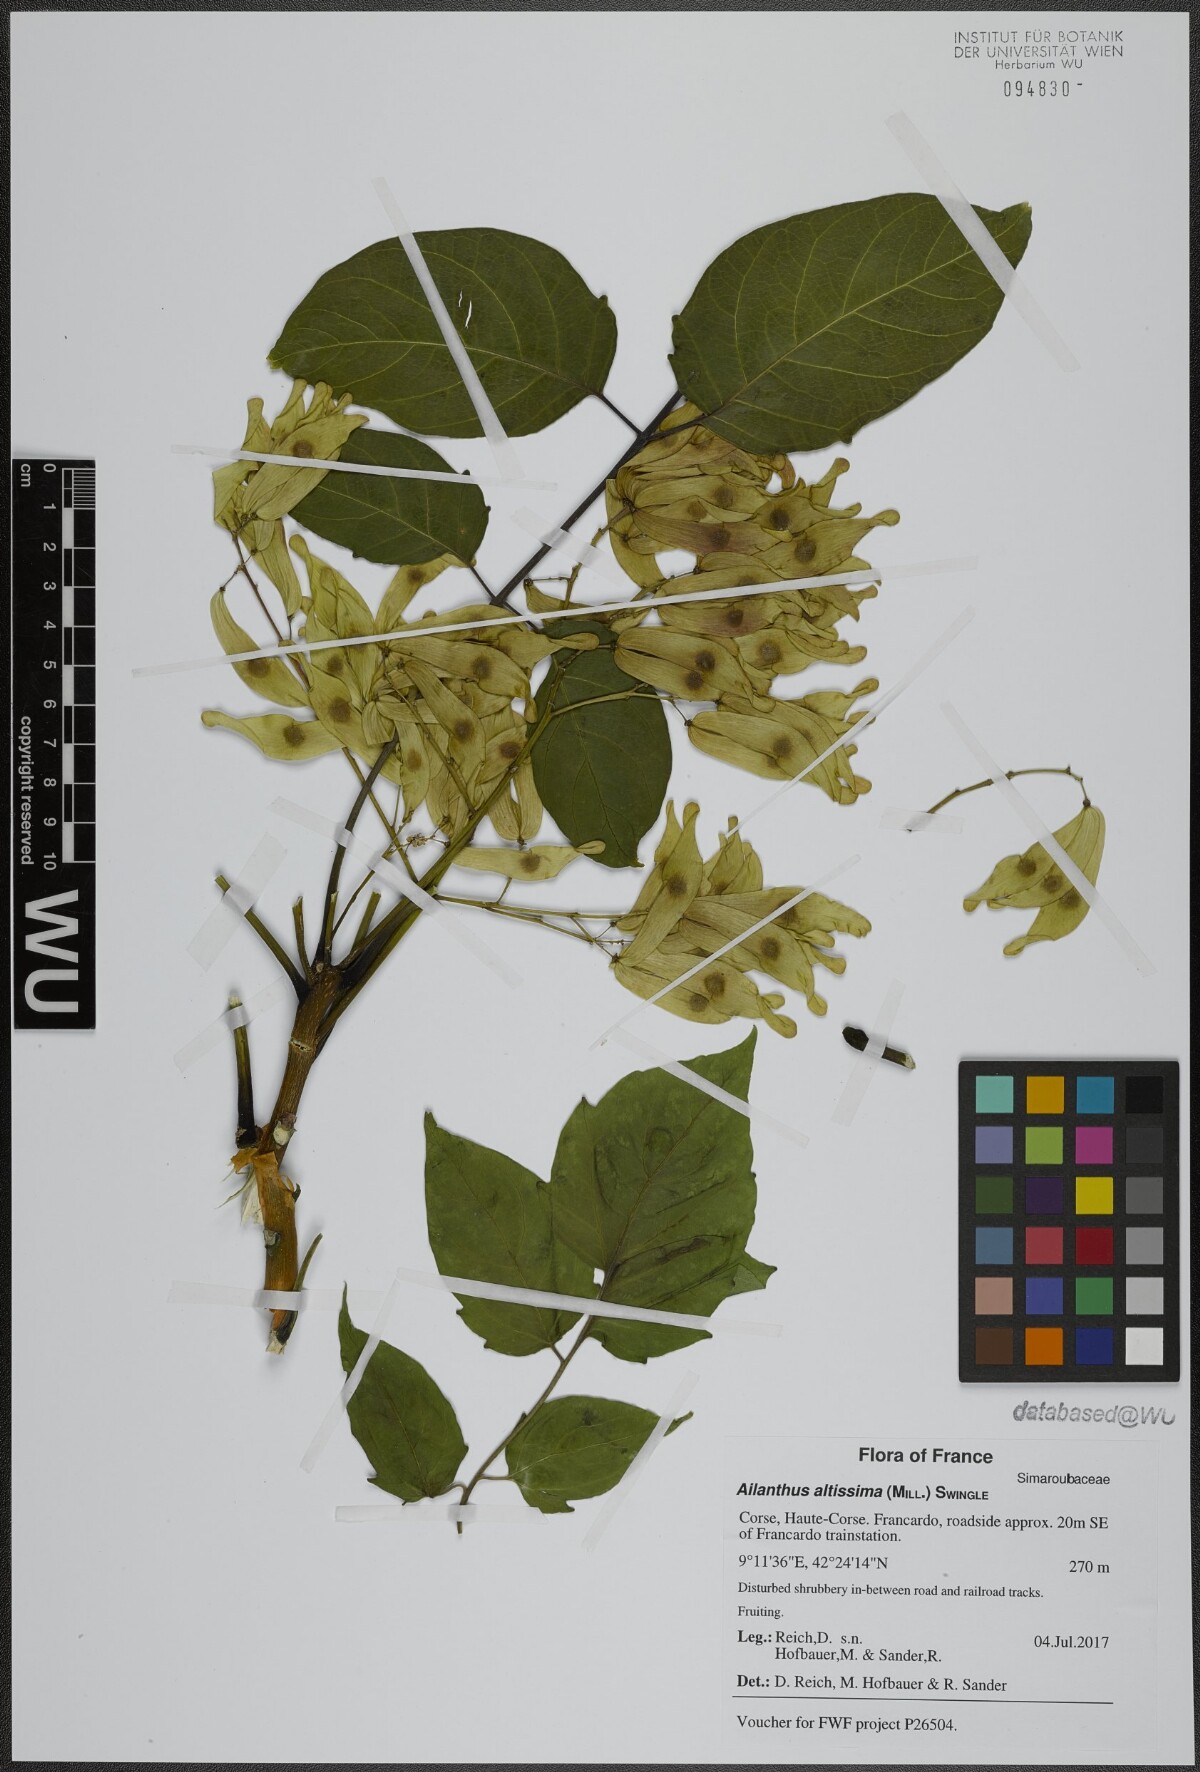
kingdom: Plantae
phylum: Tracheophyta
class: Magnoliopsida
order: Sapindales
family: Simaroubaceae
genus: Ailanthus
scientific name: Ailanthus altissima
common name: Tree-of-heaven
